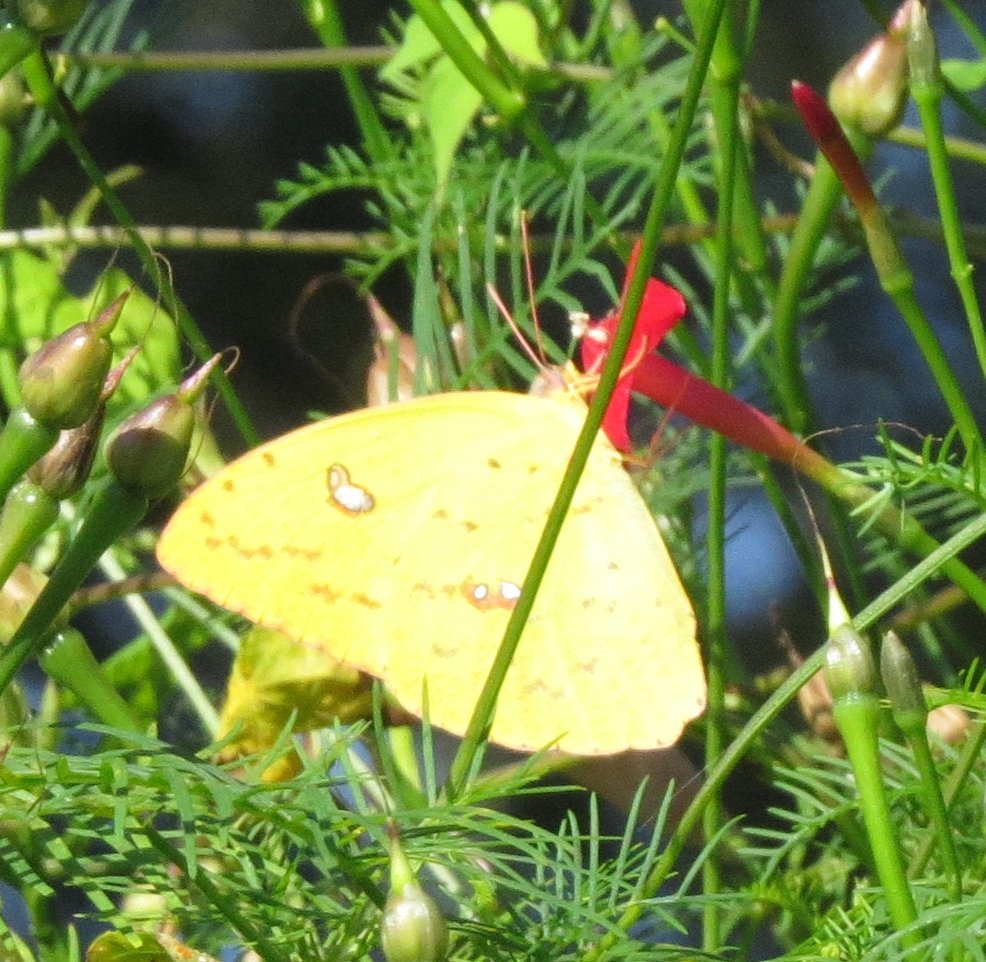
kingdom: Animalia
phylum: Arthropoda
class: Insecta
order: Lepidoptera
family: Pieridae
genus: Phoebis
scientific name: Phoebis sennae
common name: Cloudless Sulphur
